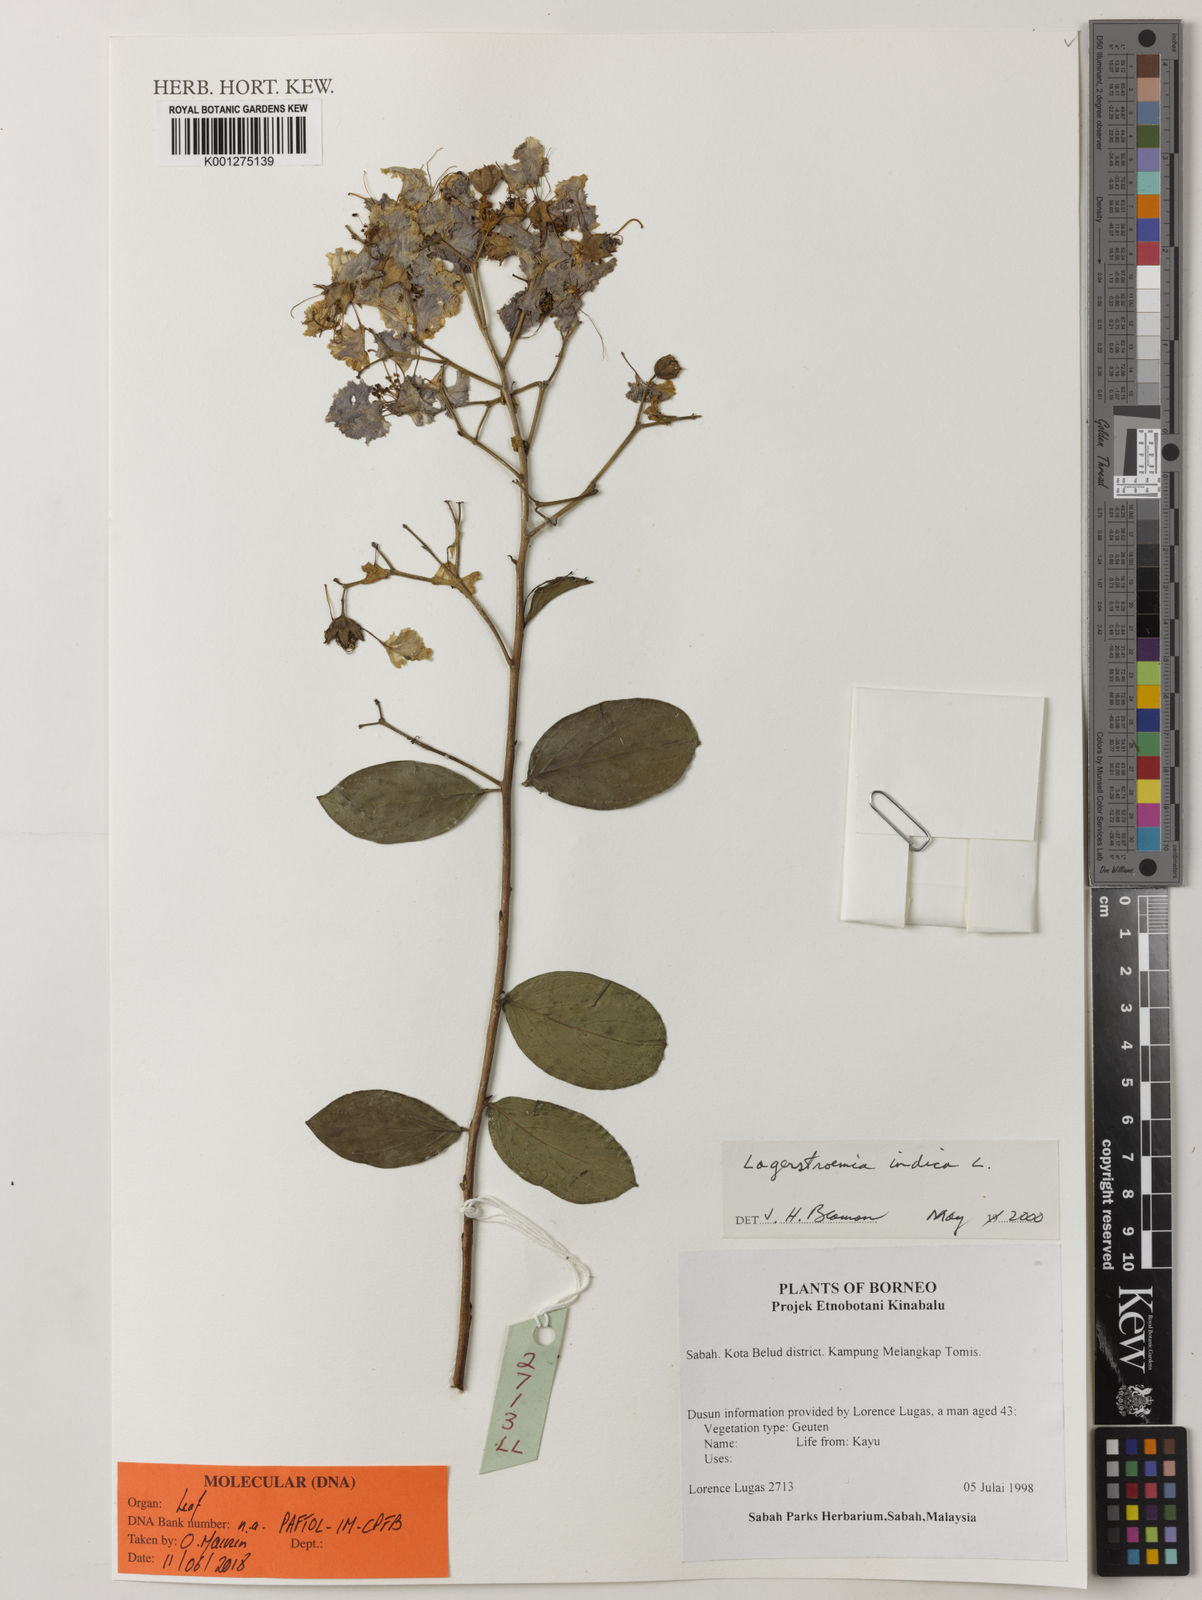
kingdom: Plantae
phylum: Tracheophyta
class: Magnoliopsida
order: Myrtales
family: Lythraceae
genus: Lagerstroemia
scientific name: Lagerstroemia indica
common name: Crape-myrtle
